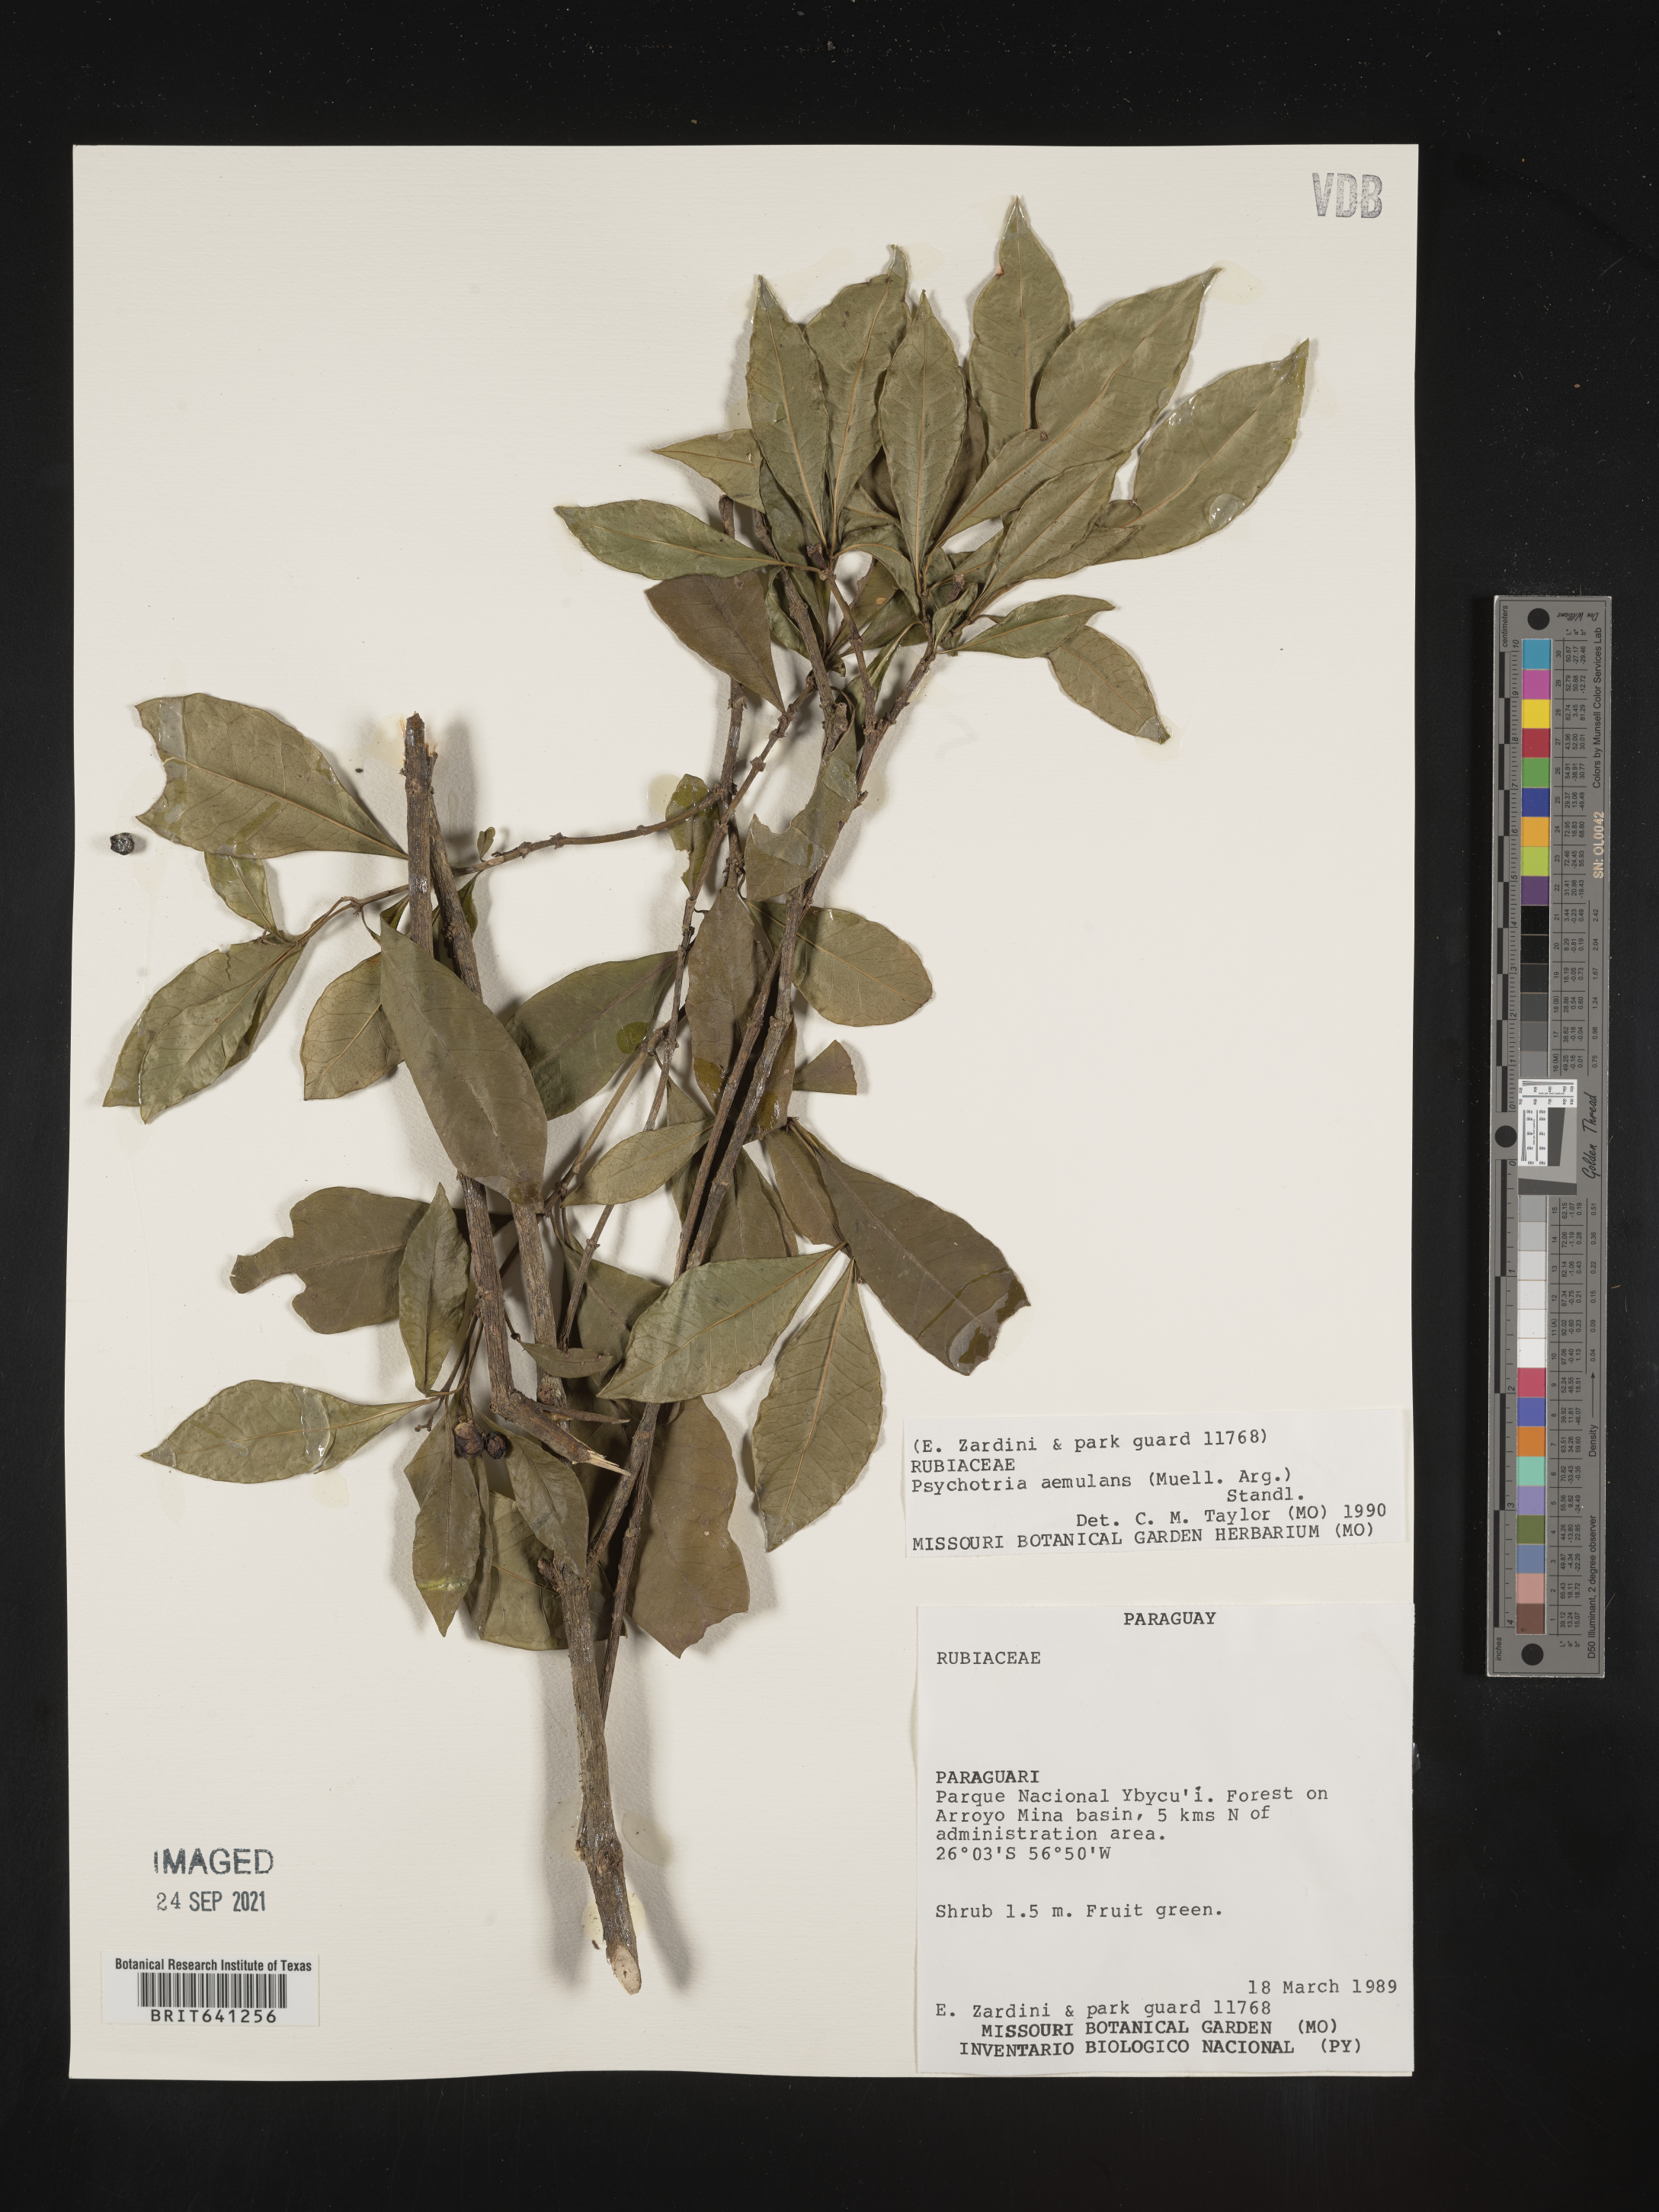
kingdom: Plantae
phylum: Tracheophyta
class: Magnoliopsida
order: Gentianales
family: Rubiaceae
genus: Psychotria
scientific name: Psychotria
